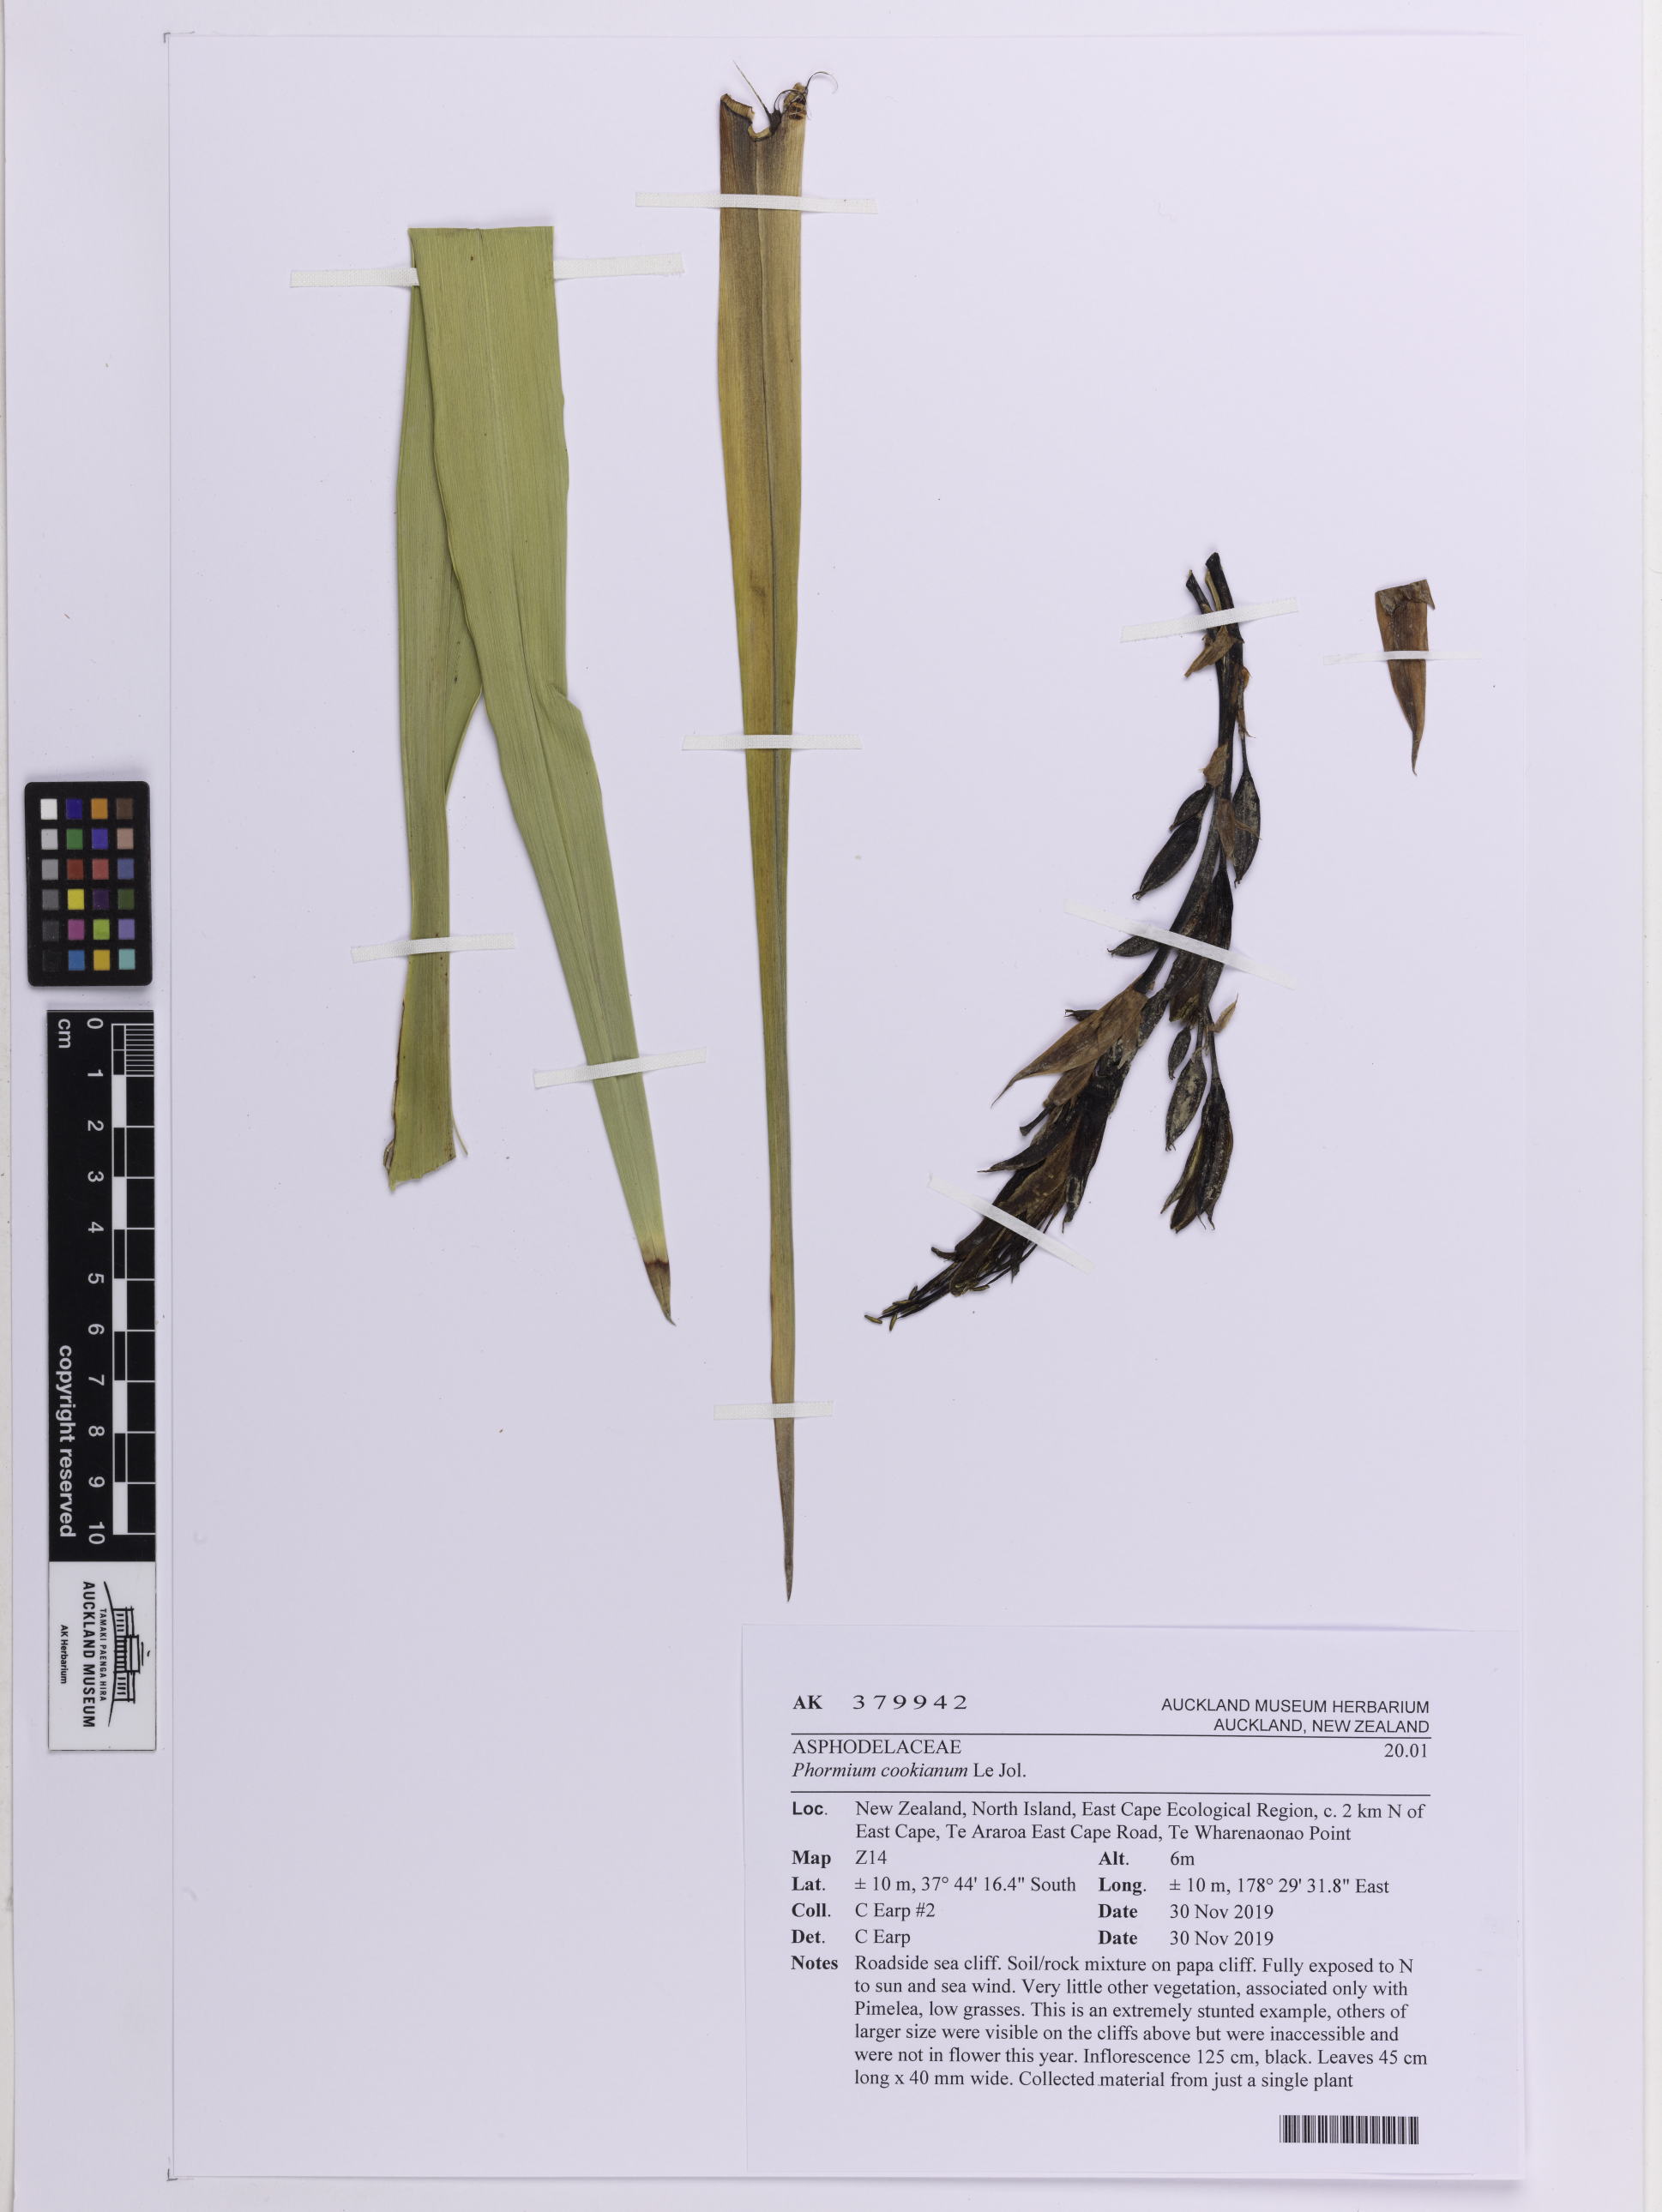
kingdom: Plantae
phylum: Tracheophyta
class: Liliopsida
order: Asparagales
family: Asphodelaceae
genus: Phormium
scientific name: Phormium colensoi
